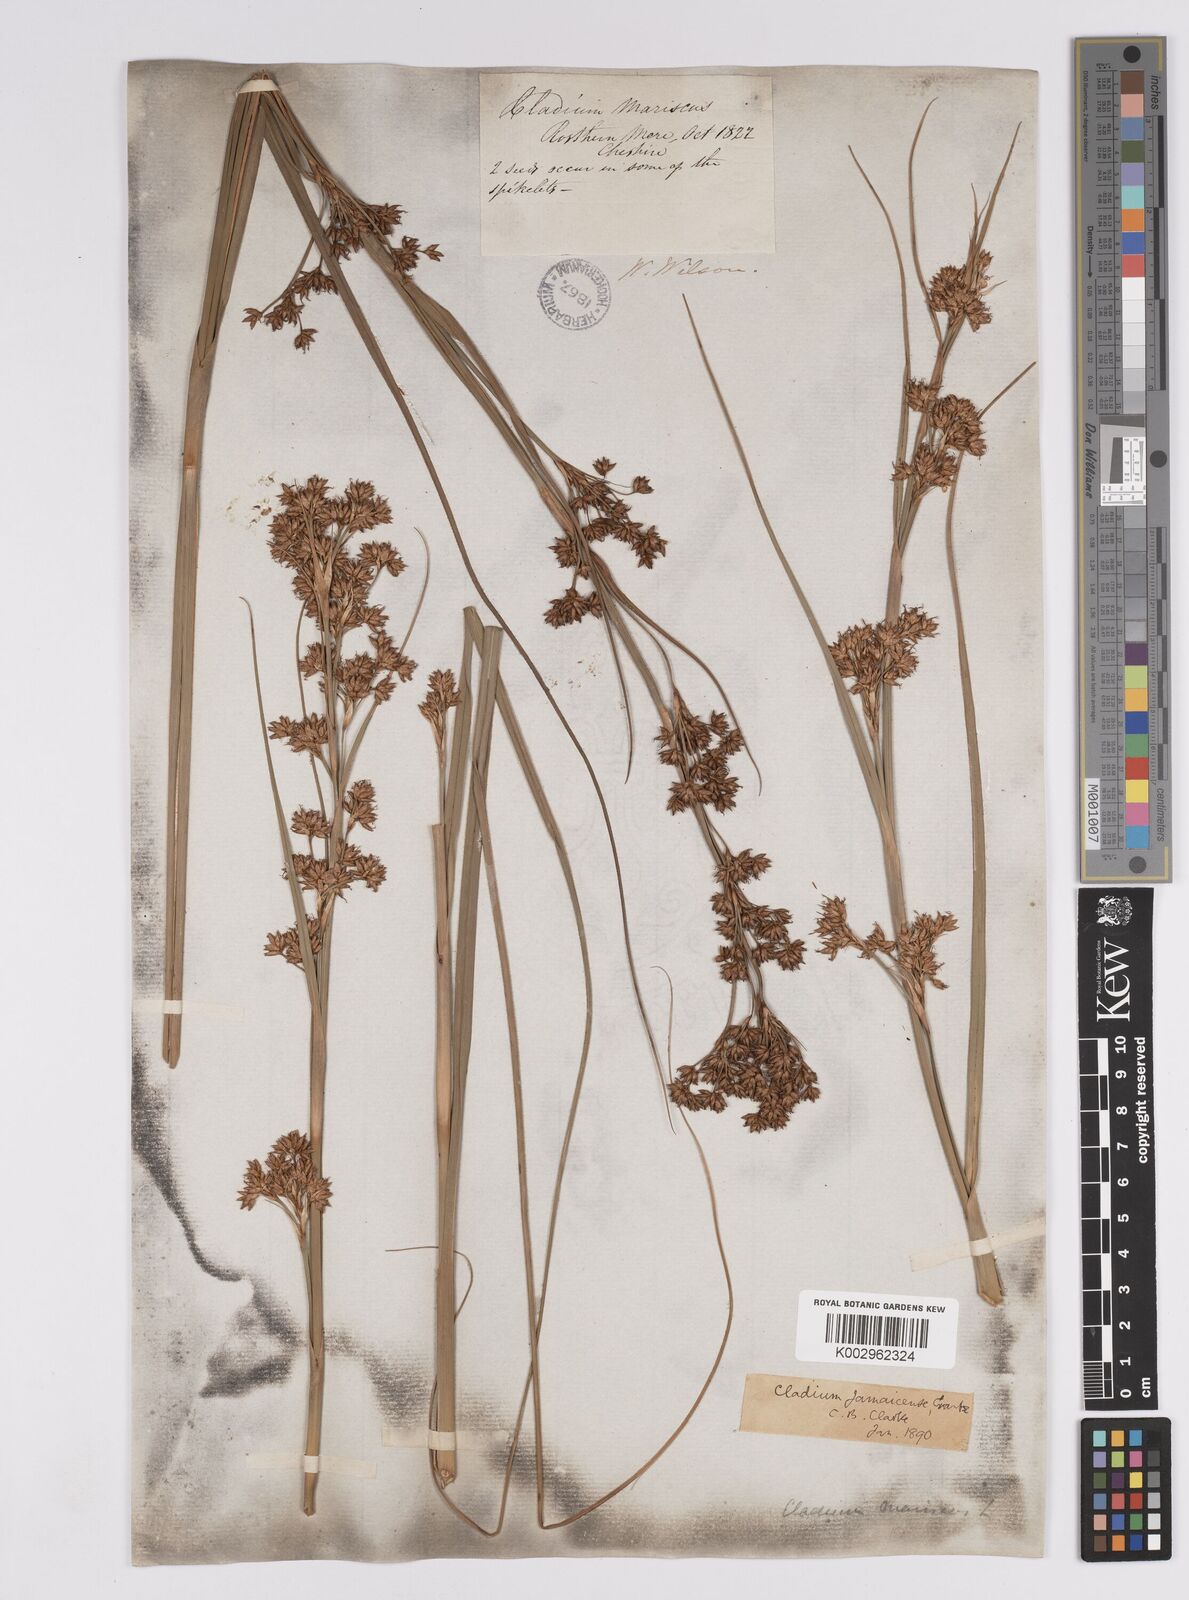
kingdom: Plantae
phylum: Tracheophyta
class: Liliopsida
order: Poales
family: Cyperaceae
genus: Cladium
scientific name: Cladium mariscus
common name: Great fen-sedge
